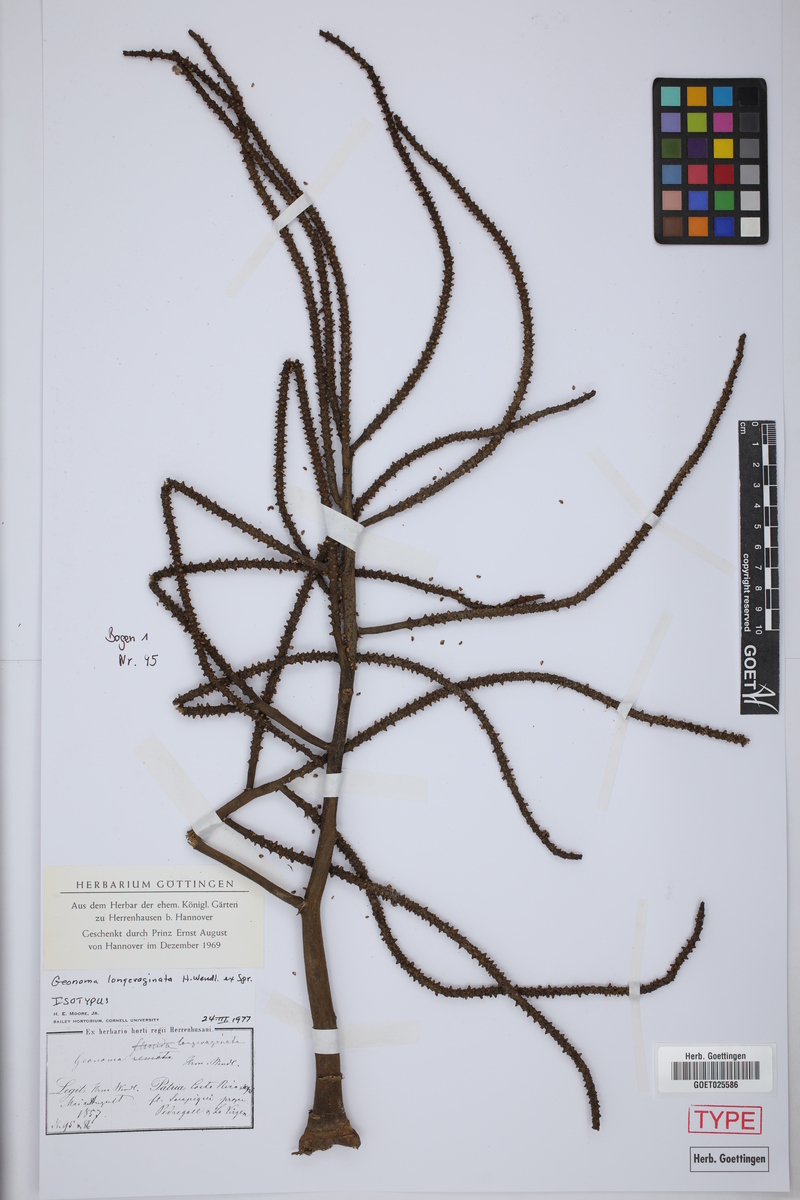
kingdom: Plantae
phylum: Tracheophyta
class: Liliopsida
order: Arecales
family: Arecaceae
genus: Geonoma
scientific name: Geonoma longivaginata
